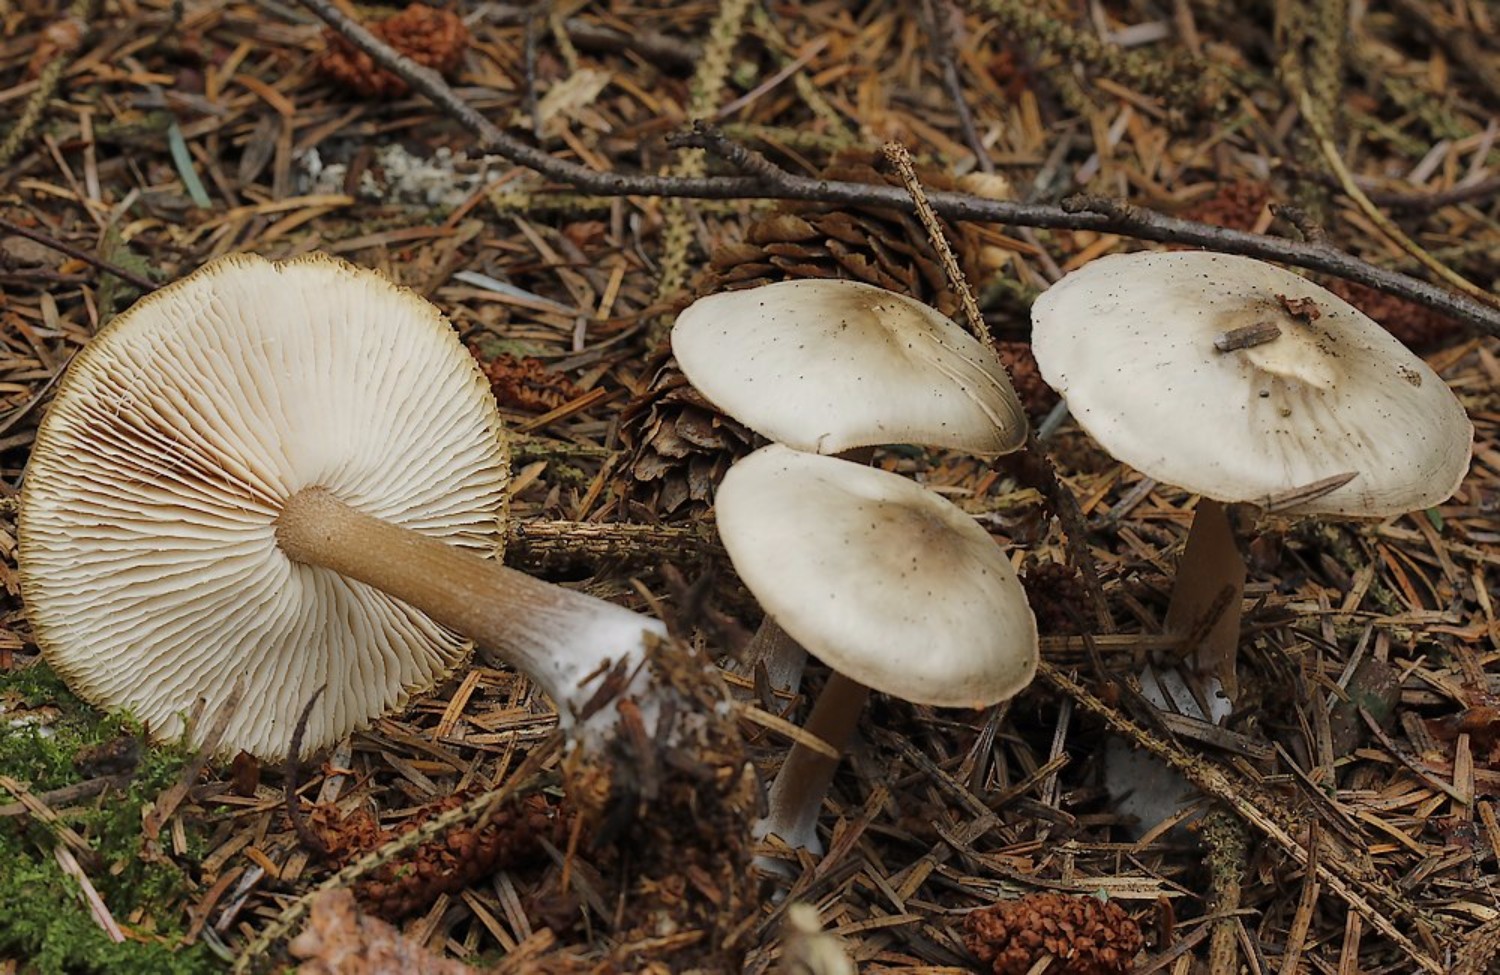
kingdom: Fungi
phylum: Basidiomycota
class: Agaricomycetes
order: Agaricales
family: Omphalotaceae
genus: Rhodocollybia
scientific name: Rhodocollybia asema
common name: horngrå fladhat
